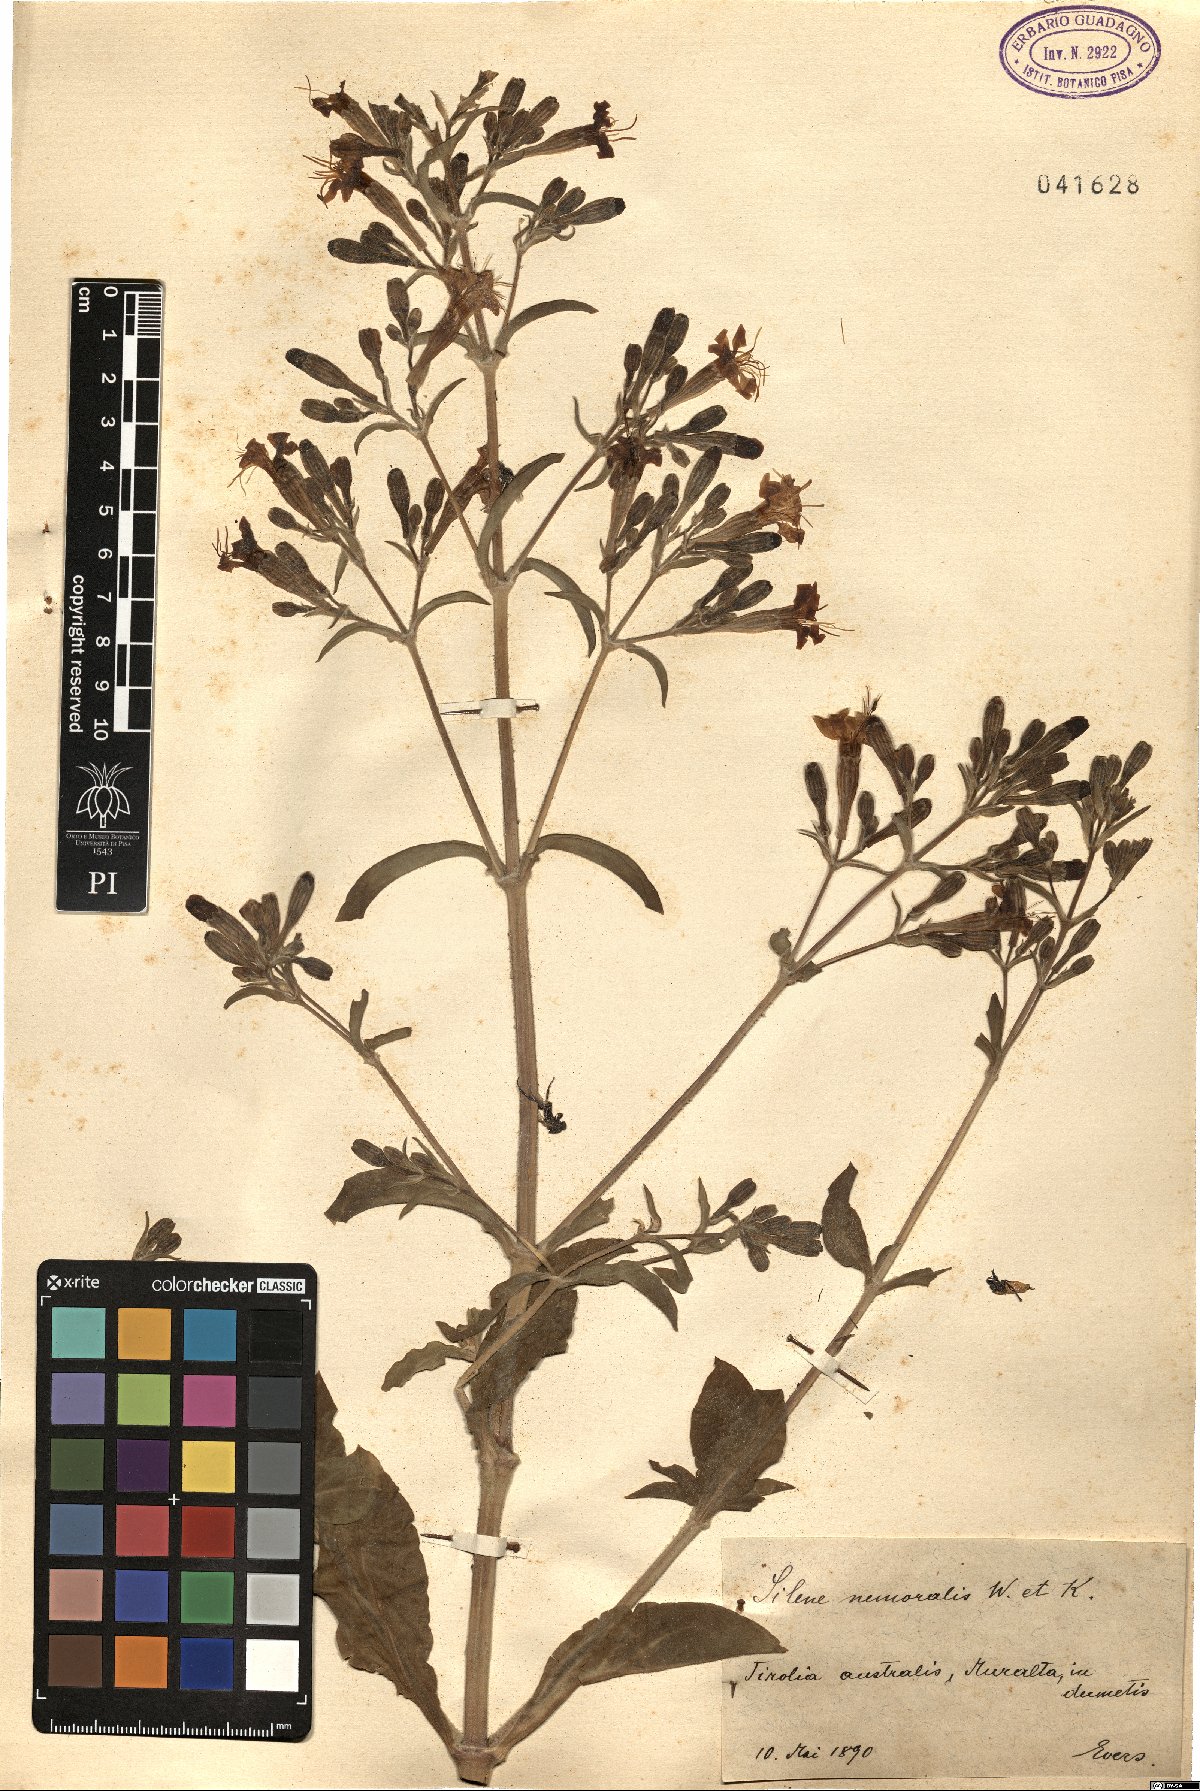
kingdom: Plantae
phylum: Tracheophyta
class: Magnoliopsida
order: Caryophyllales
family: Caryophyllaceae
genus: Silene
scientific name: Silene nemoralis
